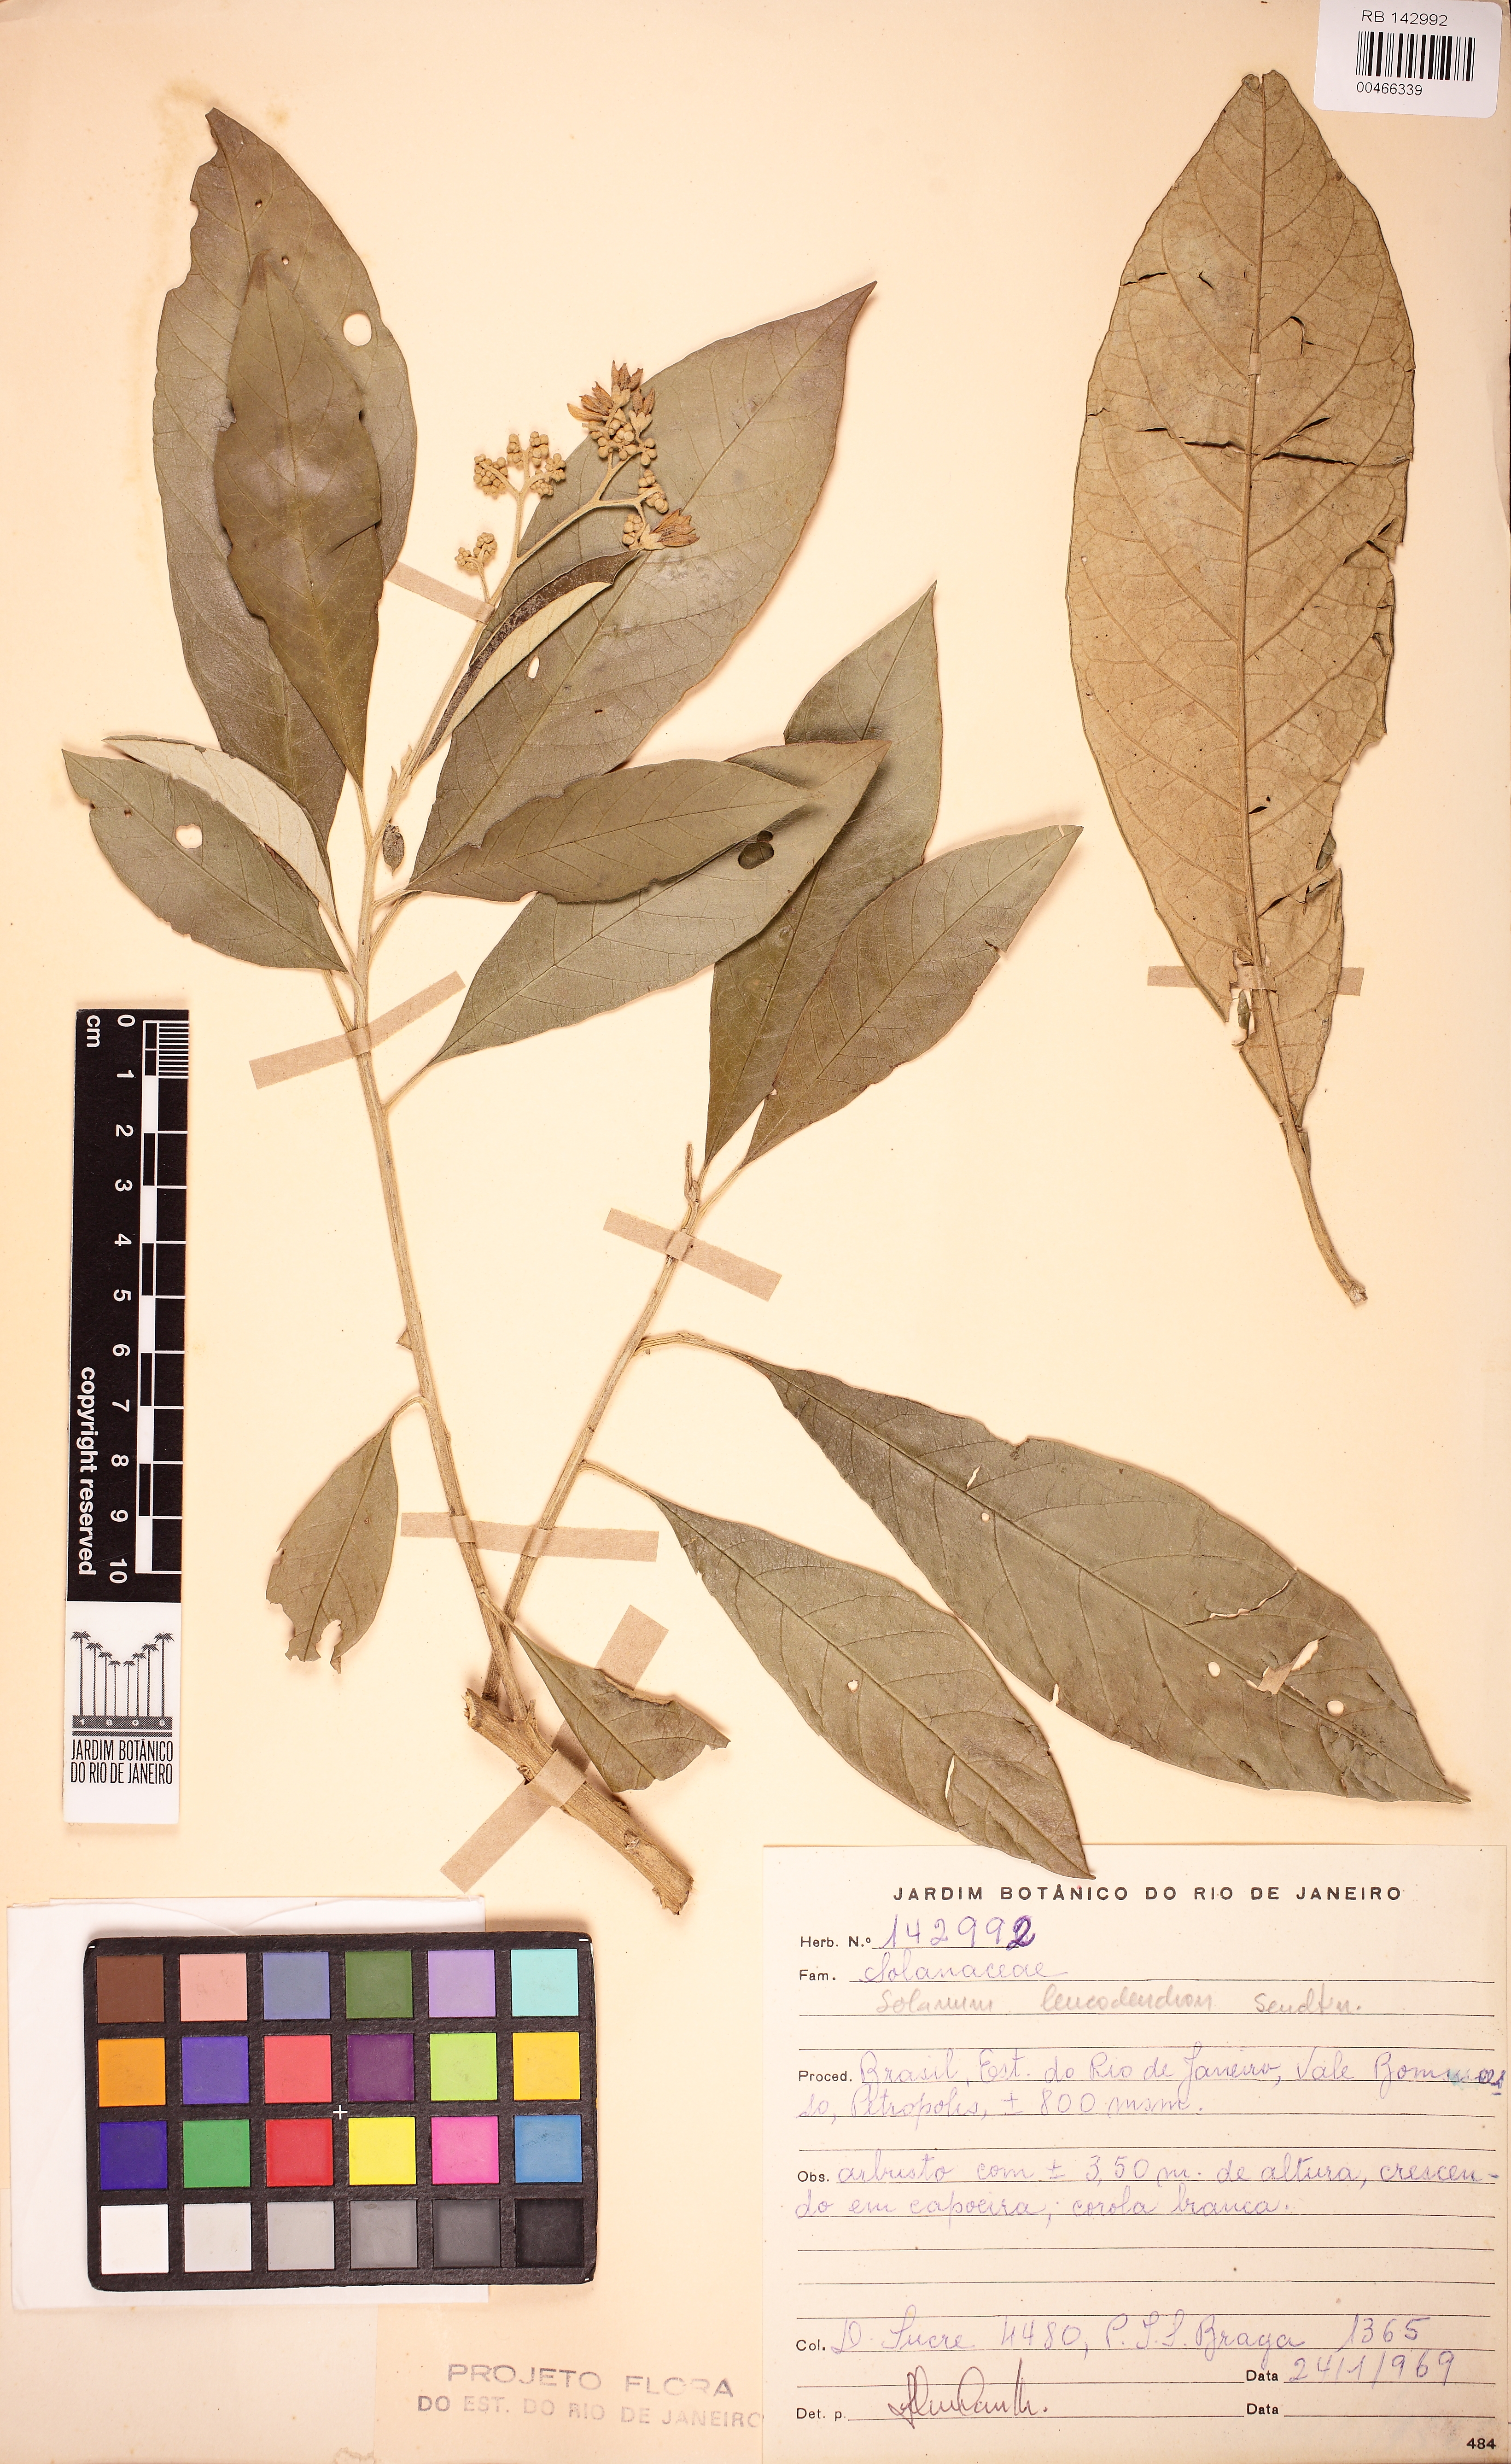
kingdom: Plantae
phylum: Tracheophyta
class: Magnoliopsida
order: Solanales
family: Solanaceae
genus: Solanum
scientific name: Solanum leucodendron
